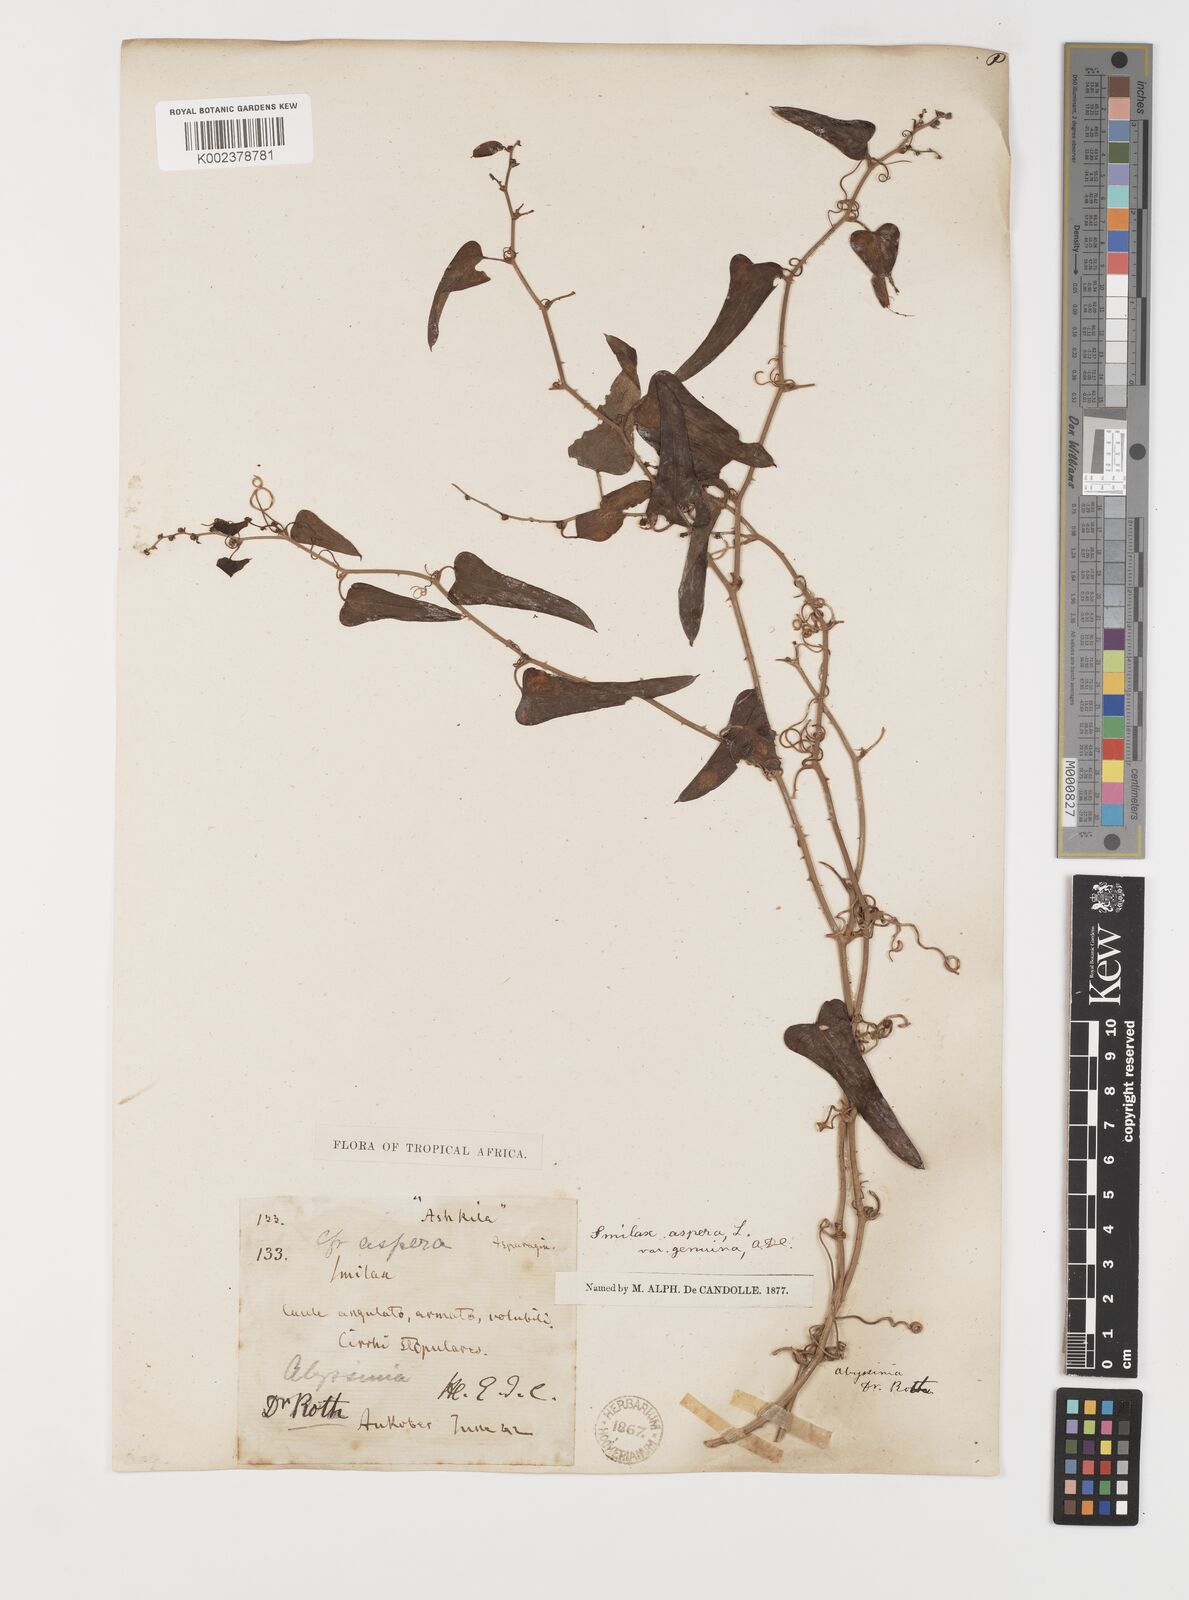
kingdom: Plantae
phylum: Tracheophyta
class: Liliopsida
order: Liliales
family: Smilacaceae
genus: Smilax
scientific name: Smilax aspera
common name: Common smilax
